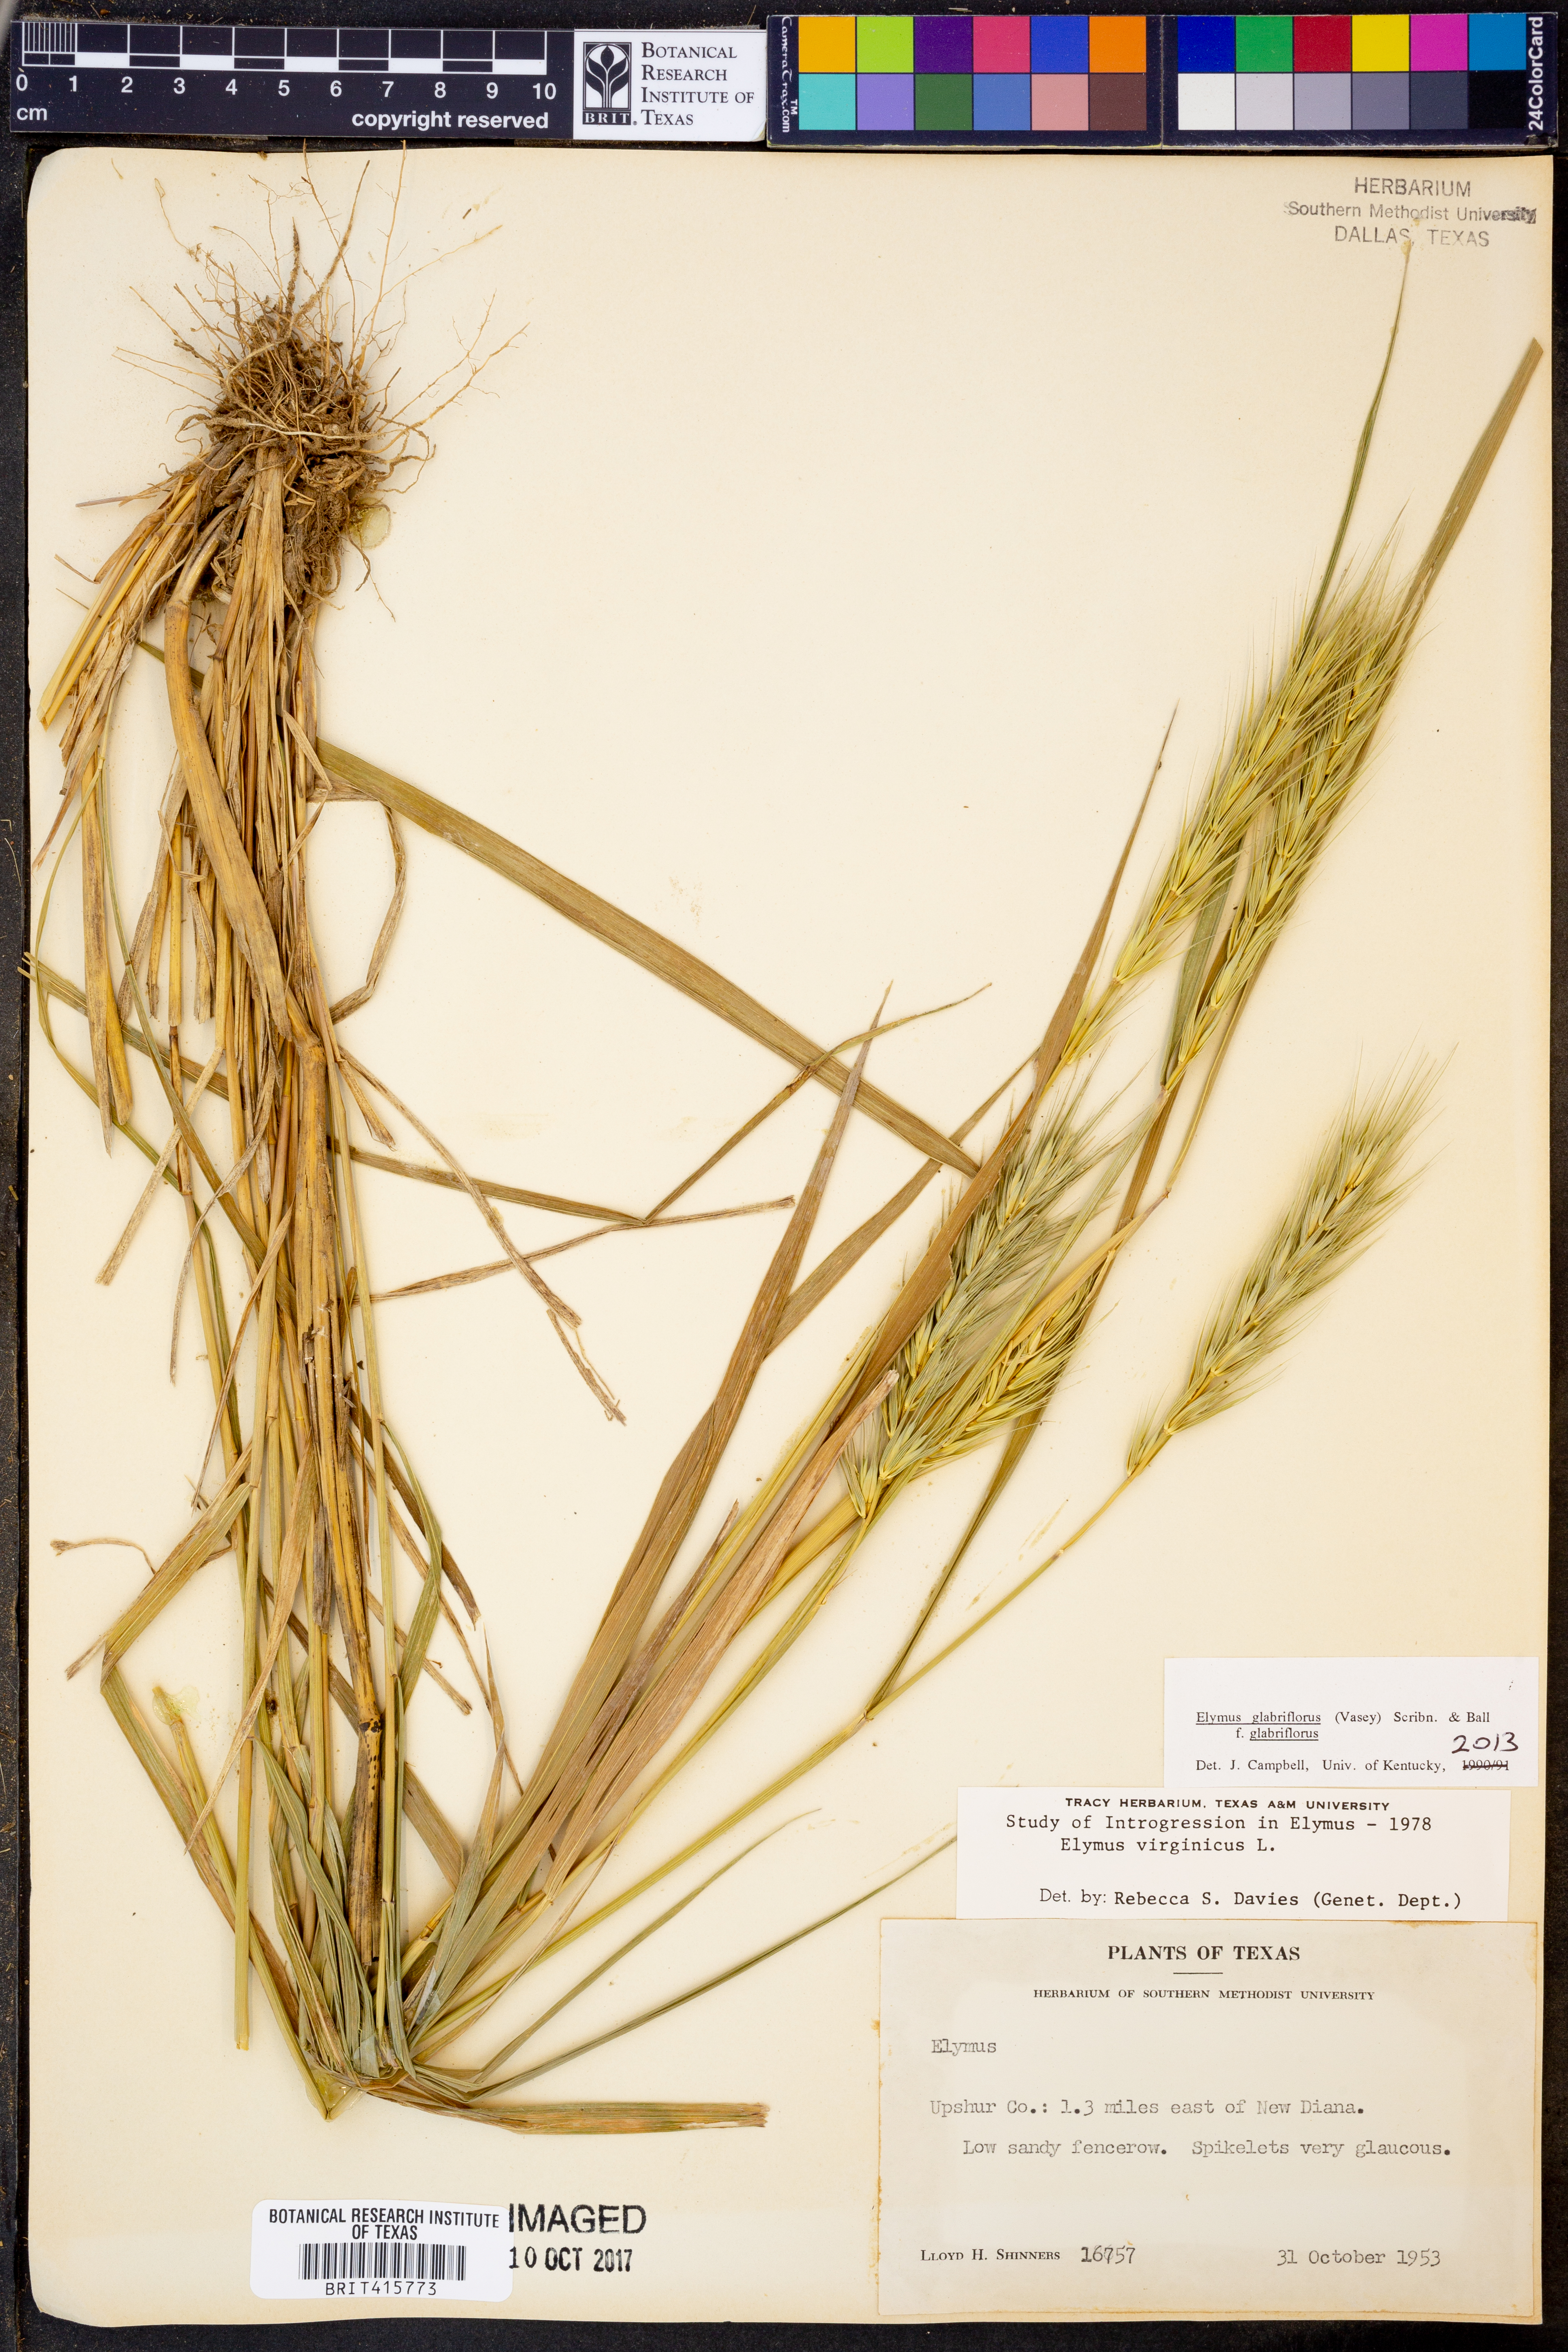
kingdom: Plantae
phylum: Tracheophyta
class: Liliopsida
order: Poales
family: Poaceae
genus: Elymus
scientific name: Elymus virginicus
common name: Common eastern wildrye
